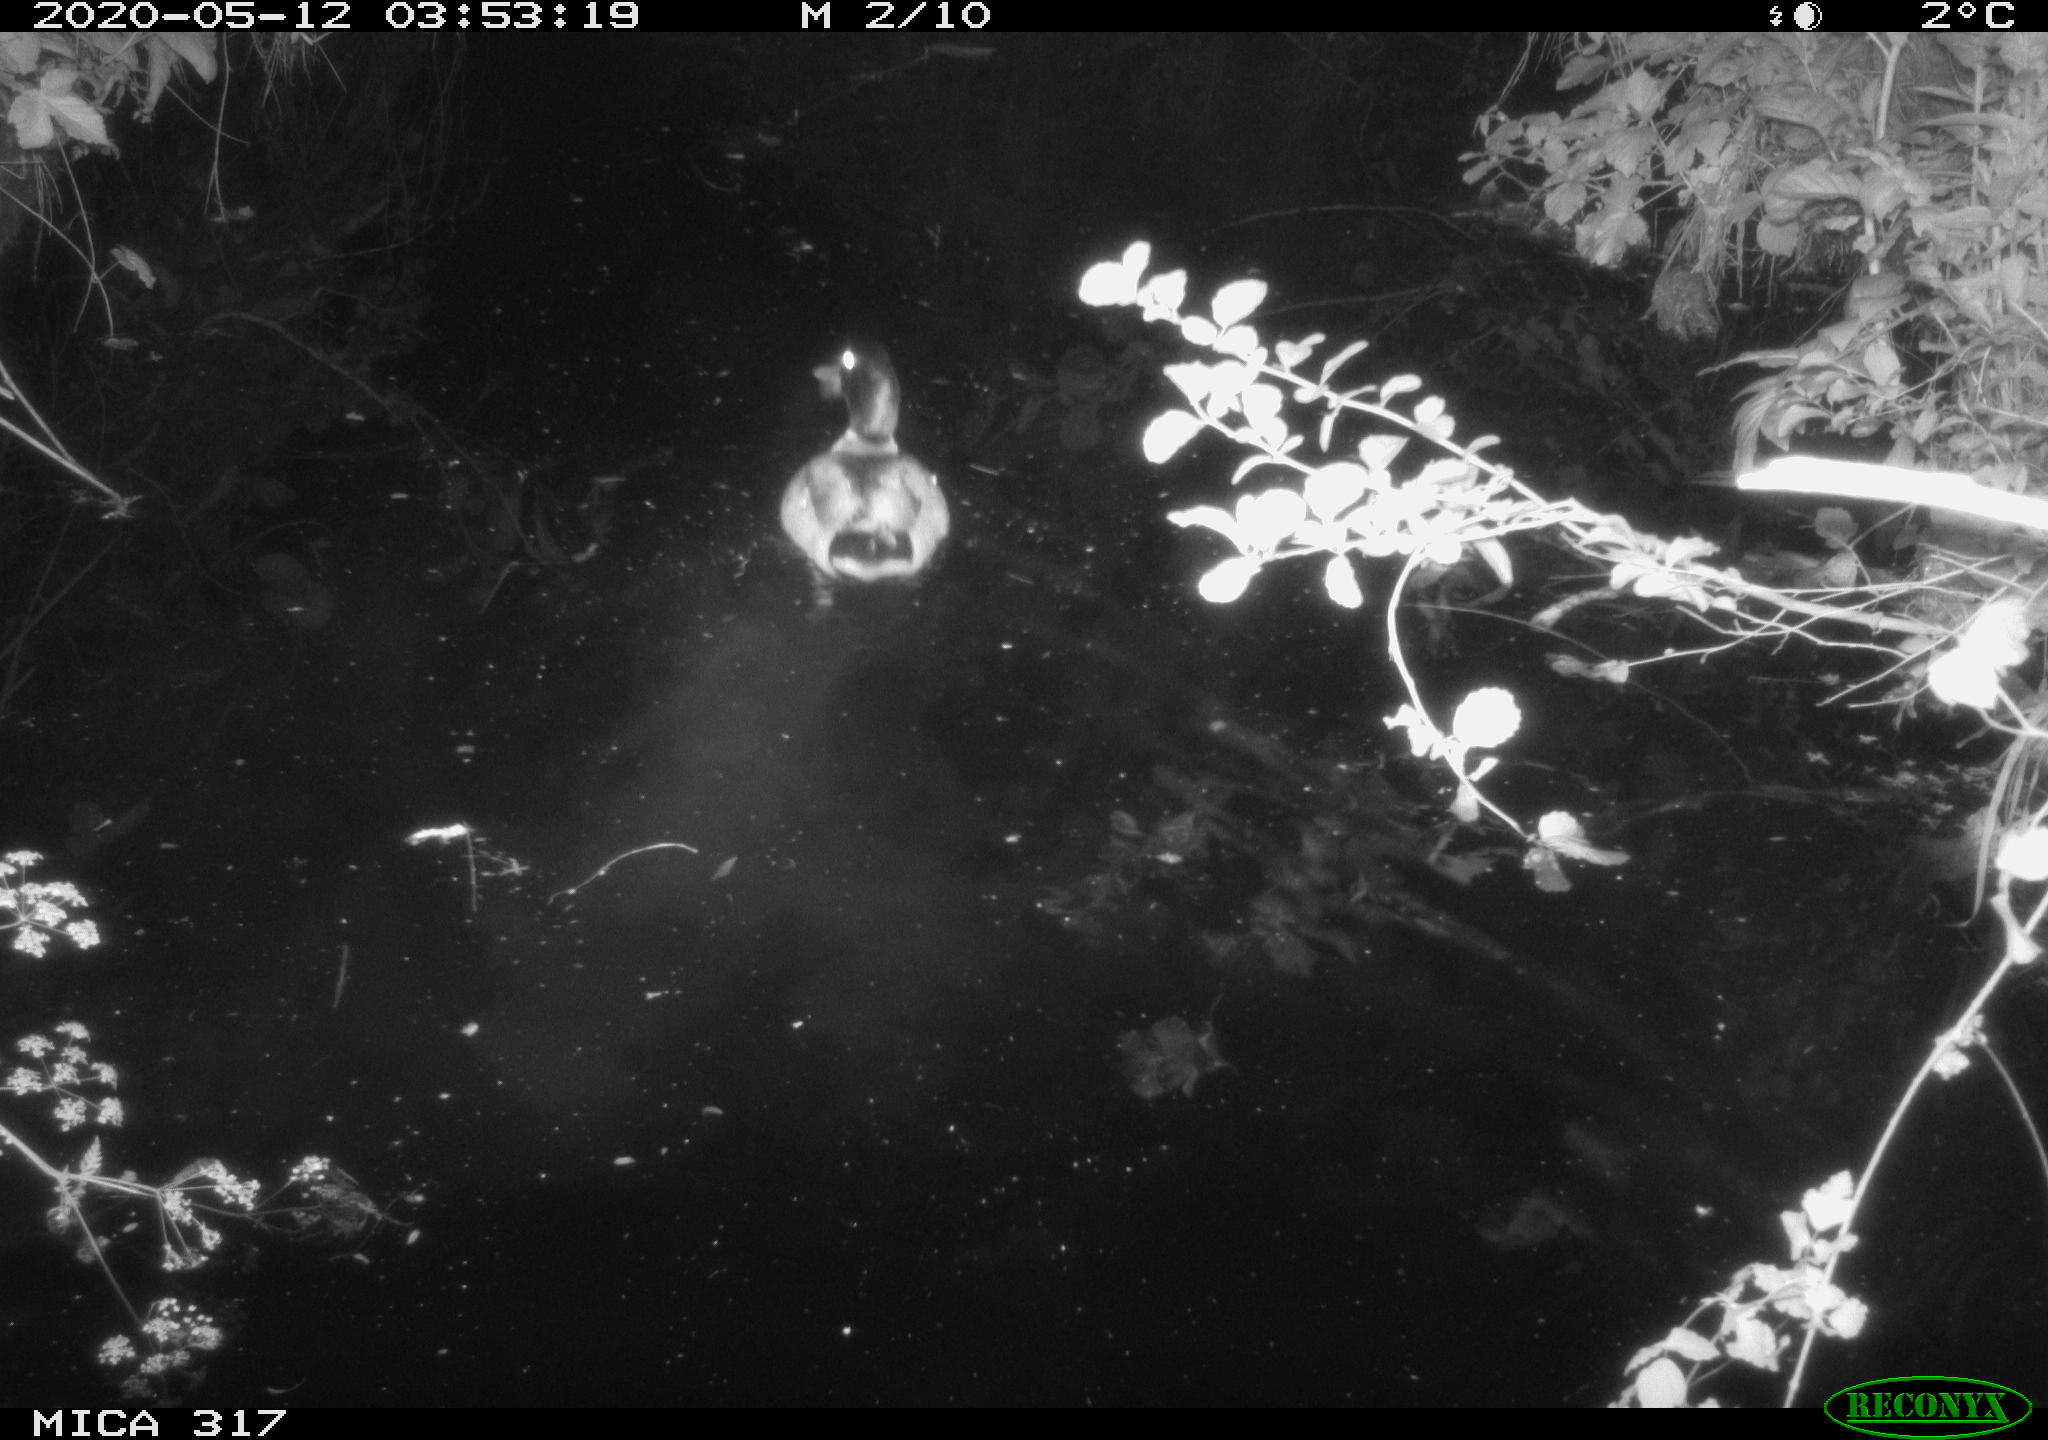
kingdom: Animalia
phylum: Chordata
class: Aves
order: Anseriformes
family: Anatidae
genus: Anas
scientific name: Anas platyrhynchos
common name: Mallard
